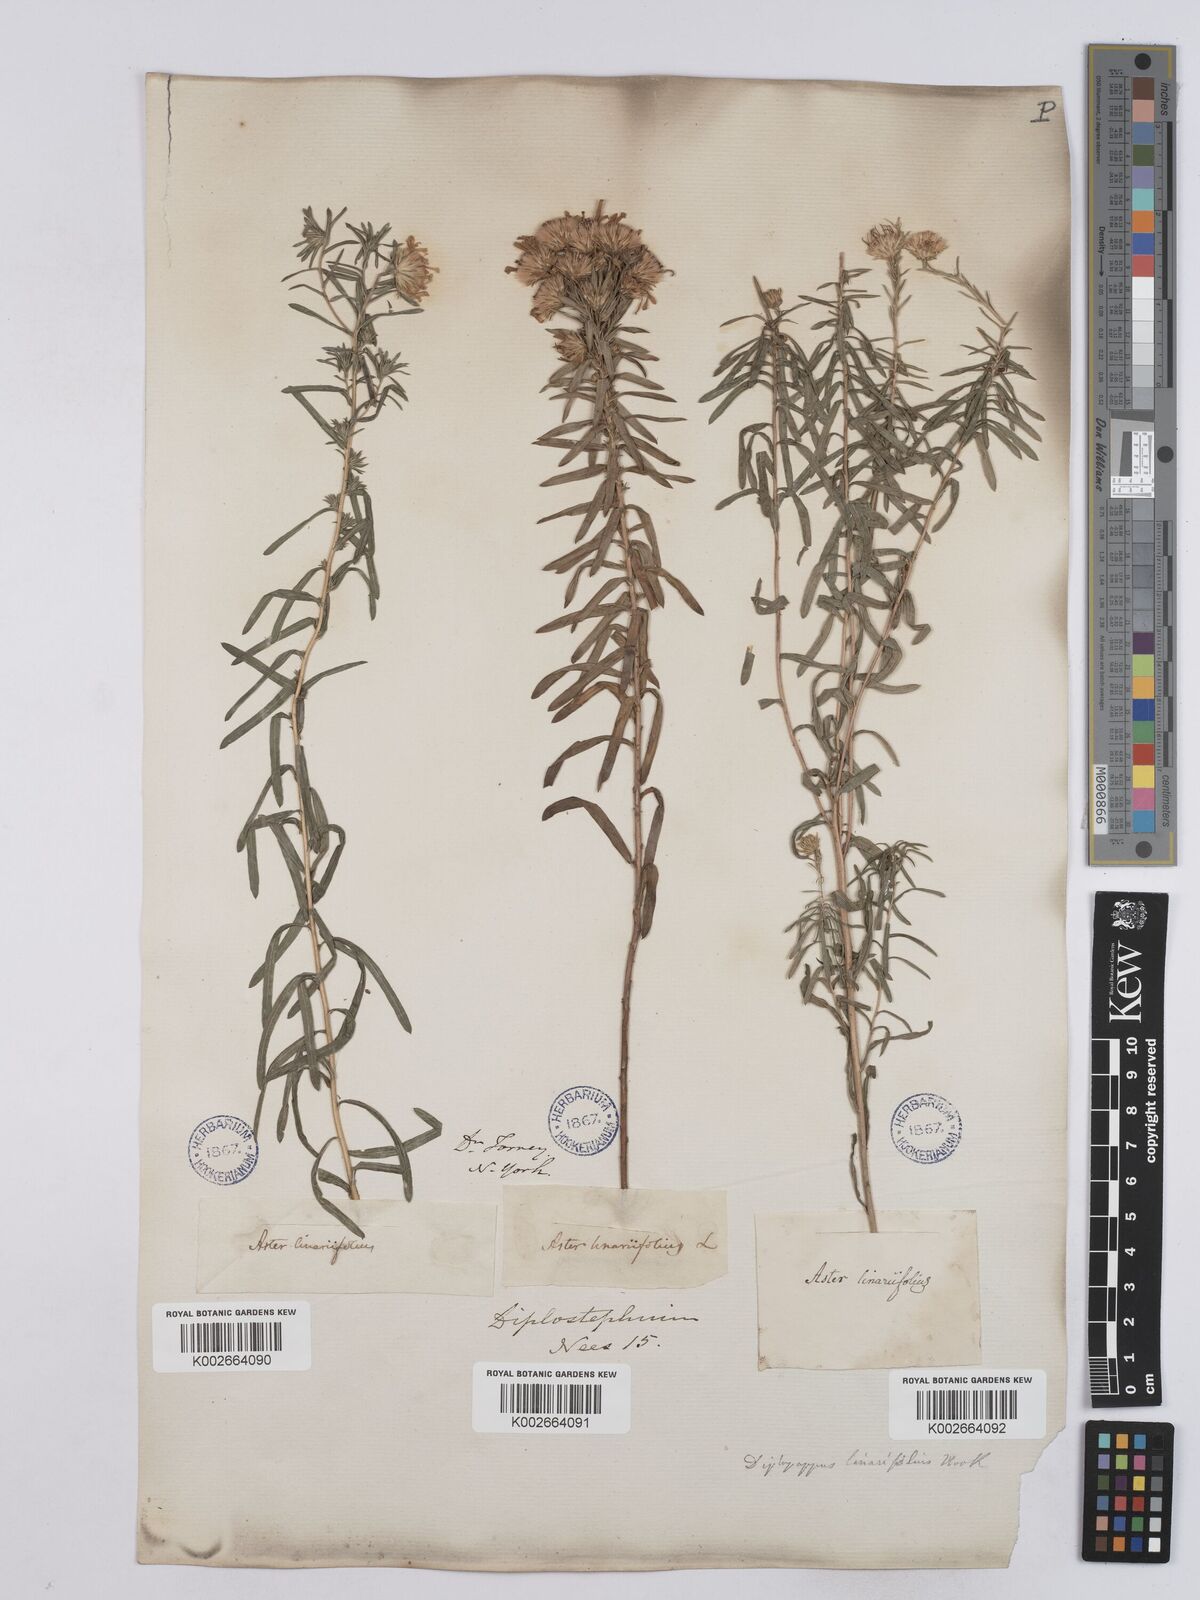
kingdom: Plantae
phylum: Tracheophyta
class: Magnoliopsida
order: Asterales
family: Asteraceae
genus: Ionactis
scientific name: Ionactis linariifolia
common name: Flax-leaf aster
